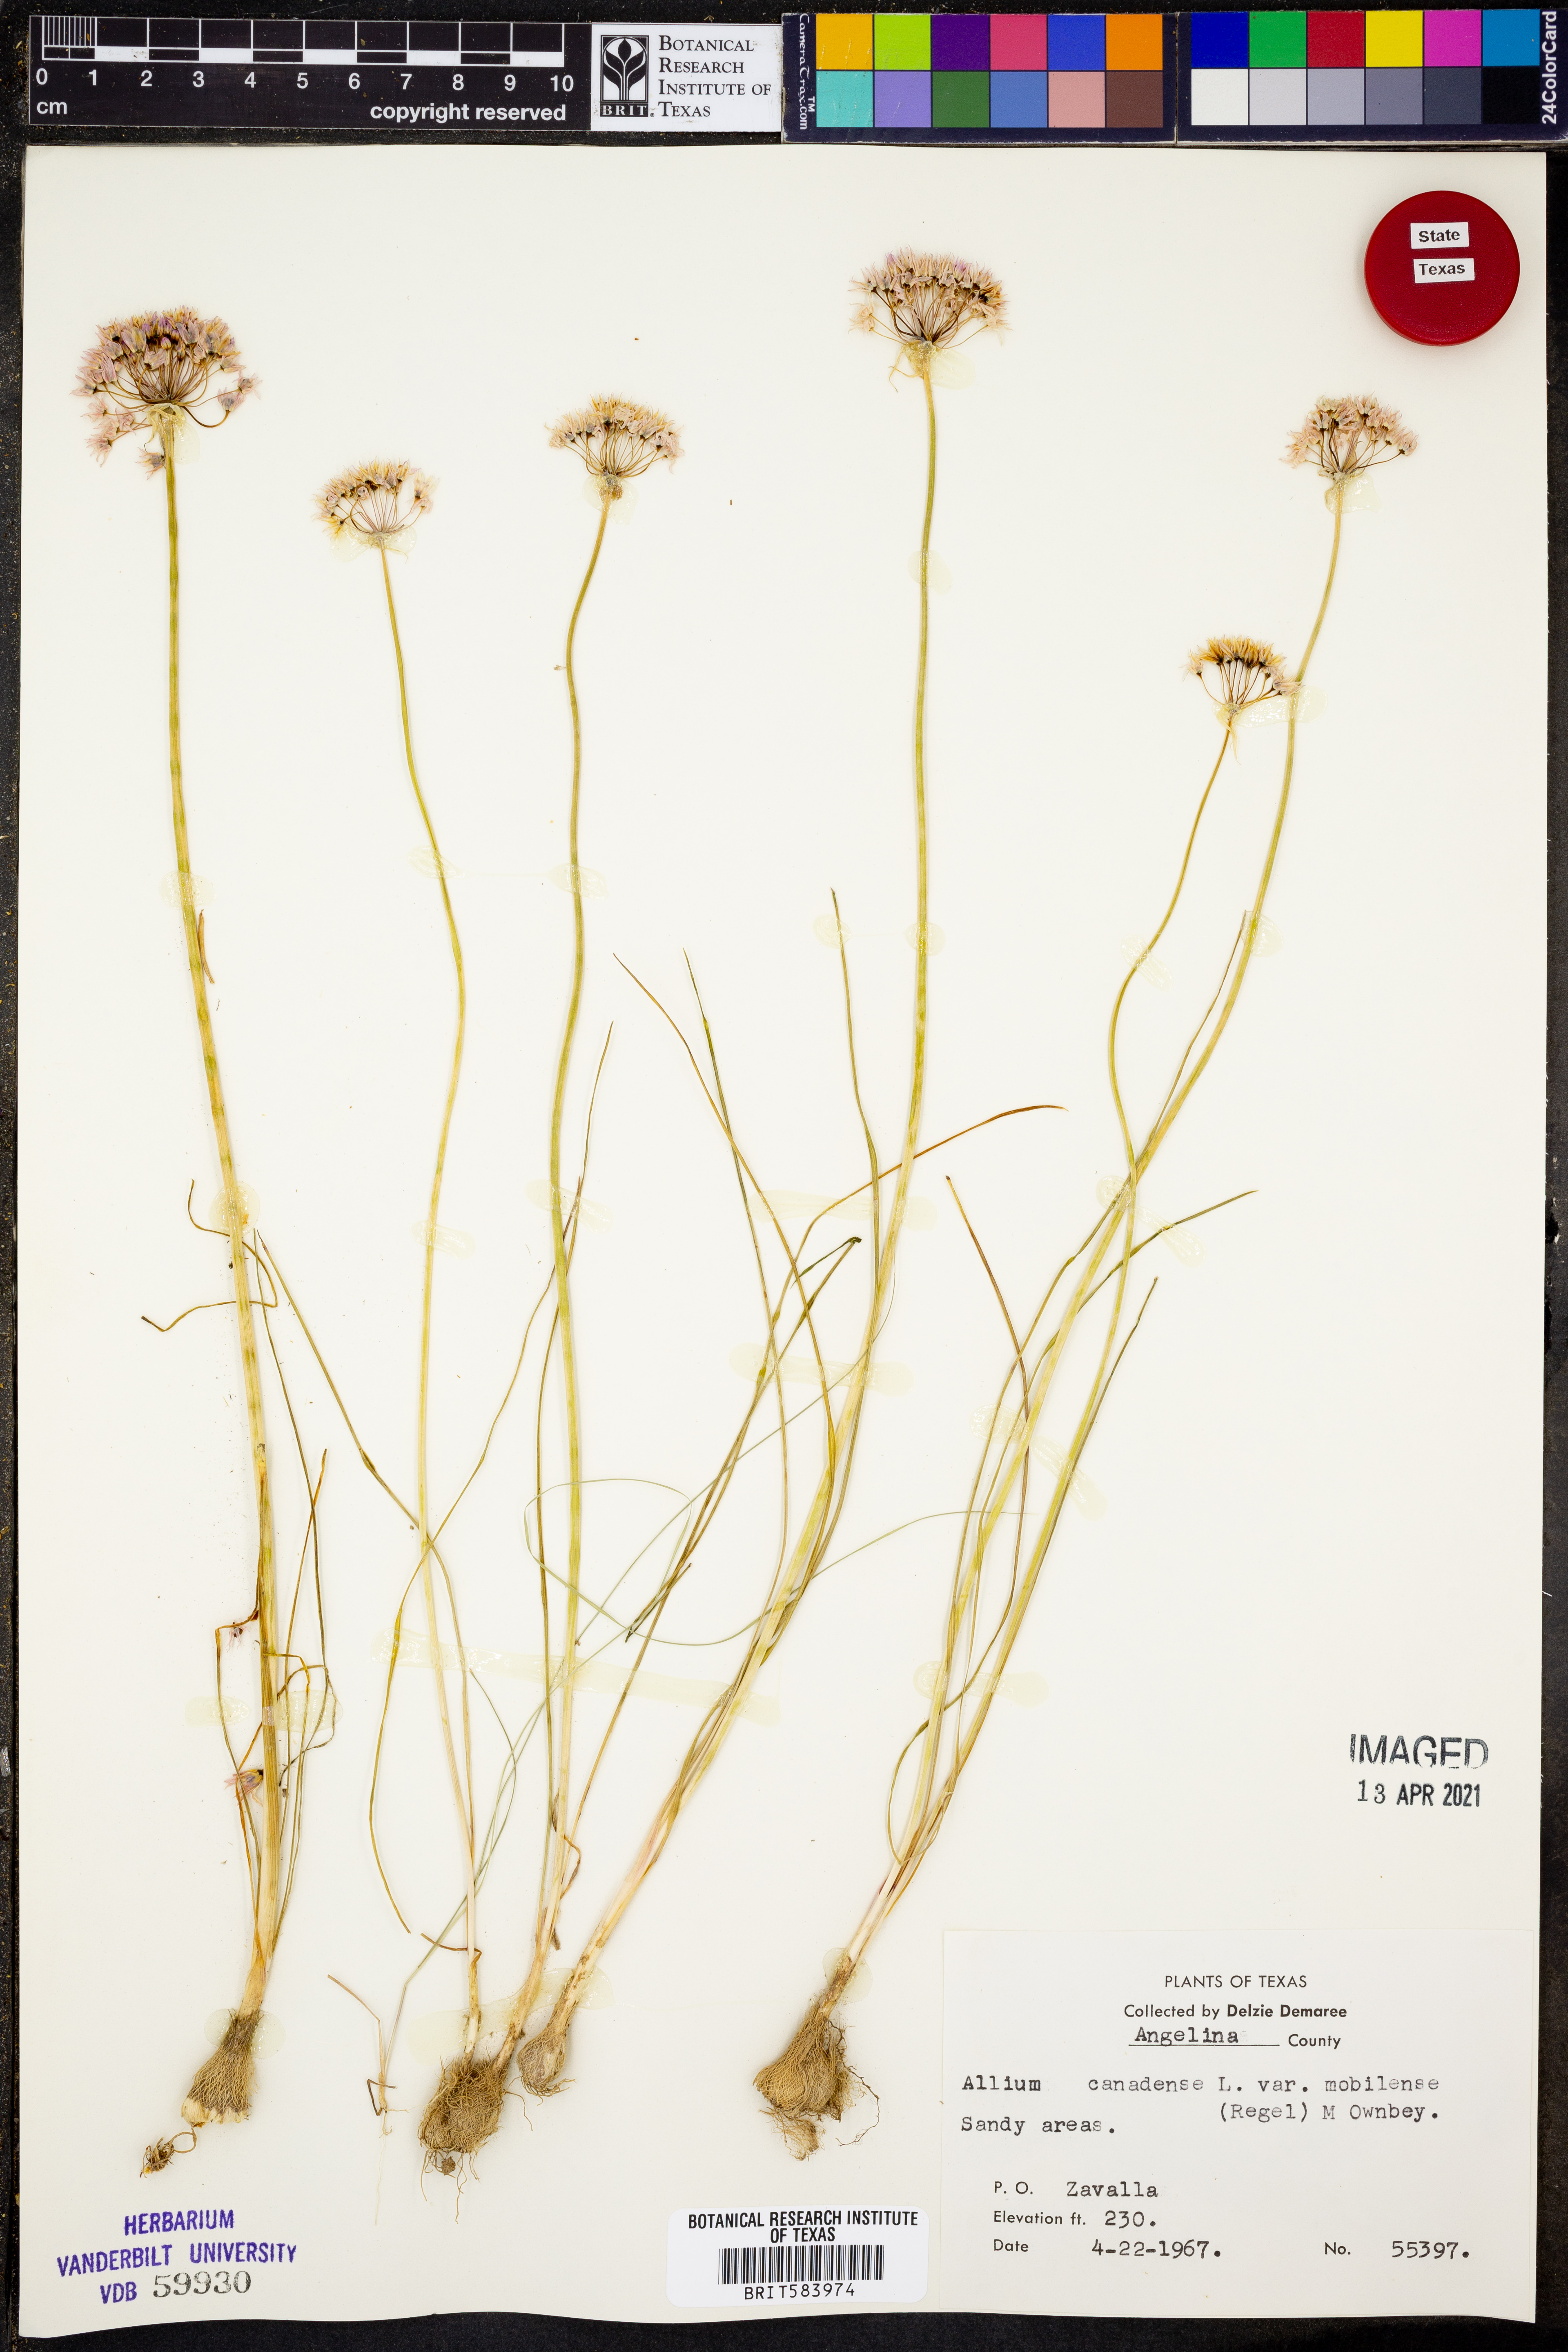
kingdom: Plantae
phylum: Tracheophyta
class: Liliopsida
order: Asparagales
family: Amaryllidaceae
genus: Allium
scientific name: Allium canadense
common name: Meadow garlic
